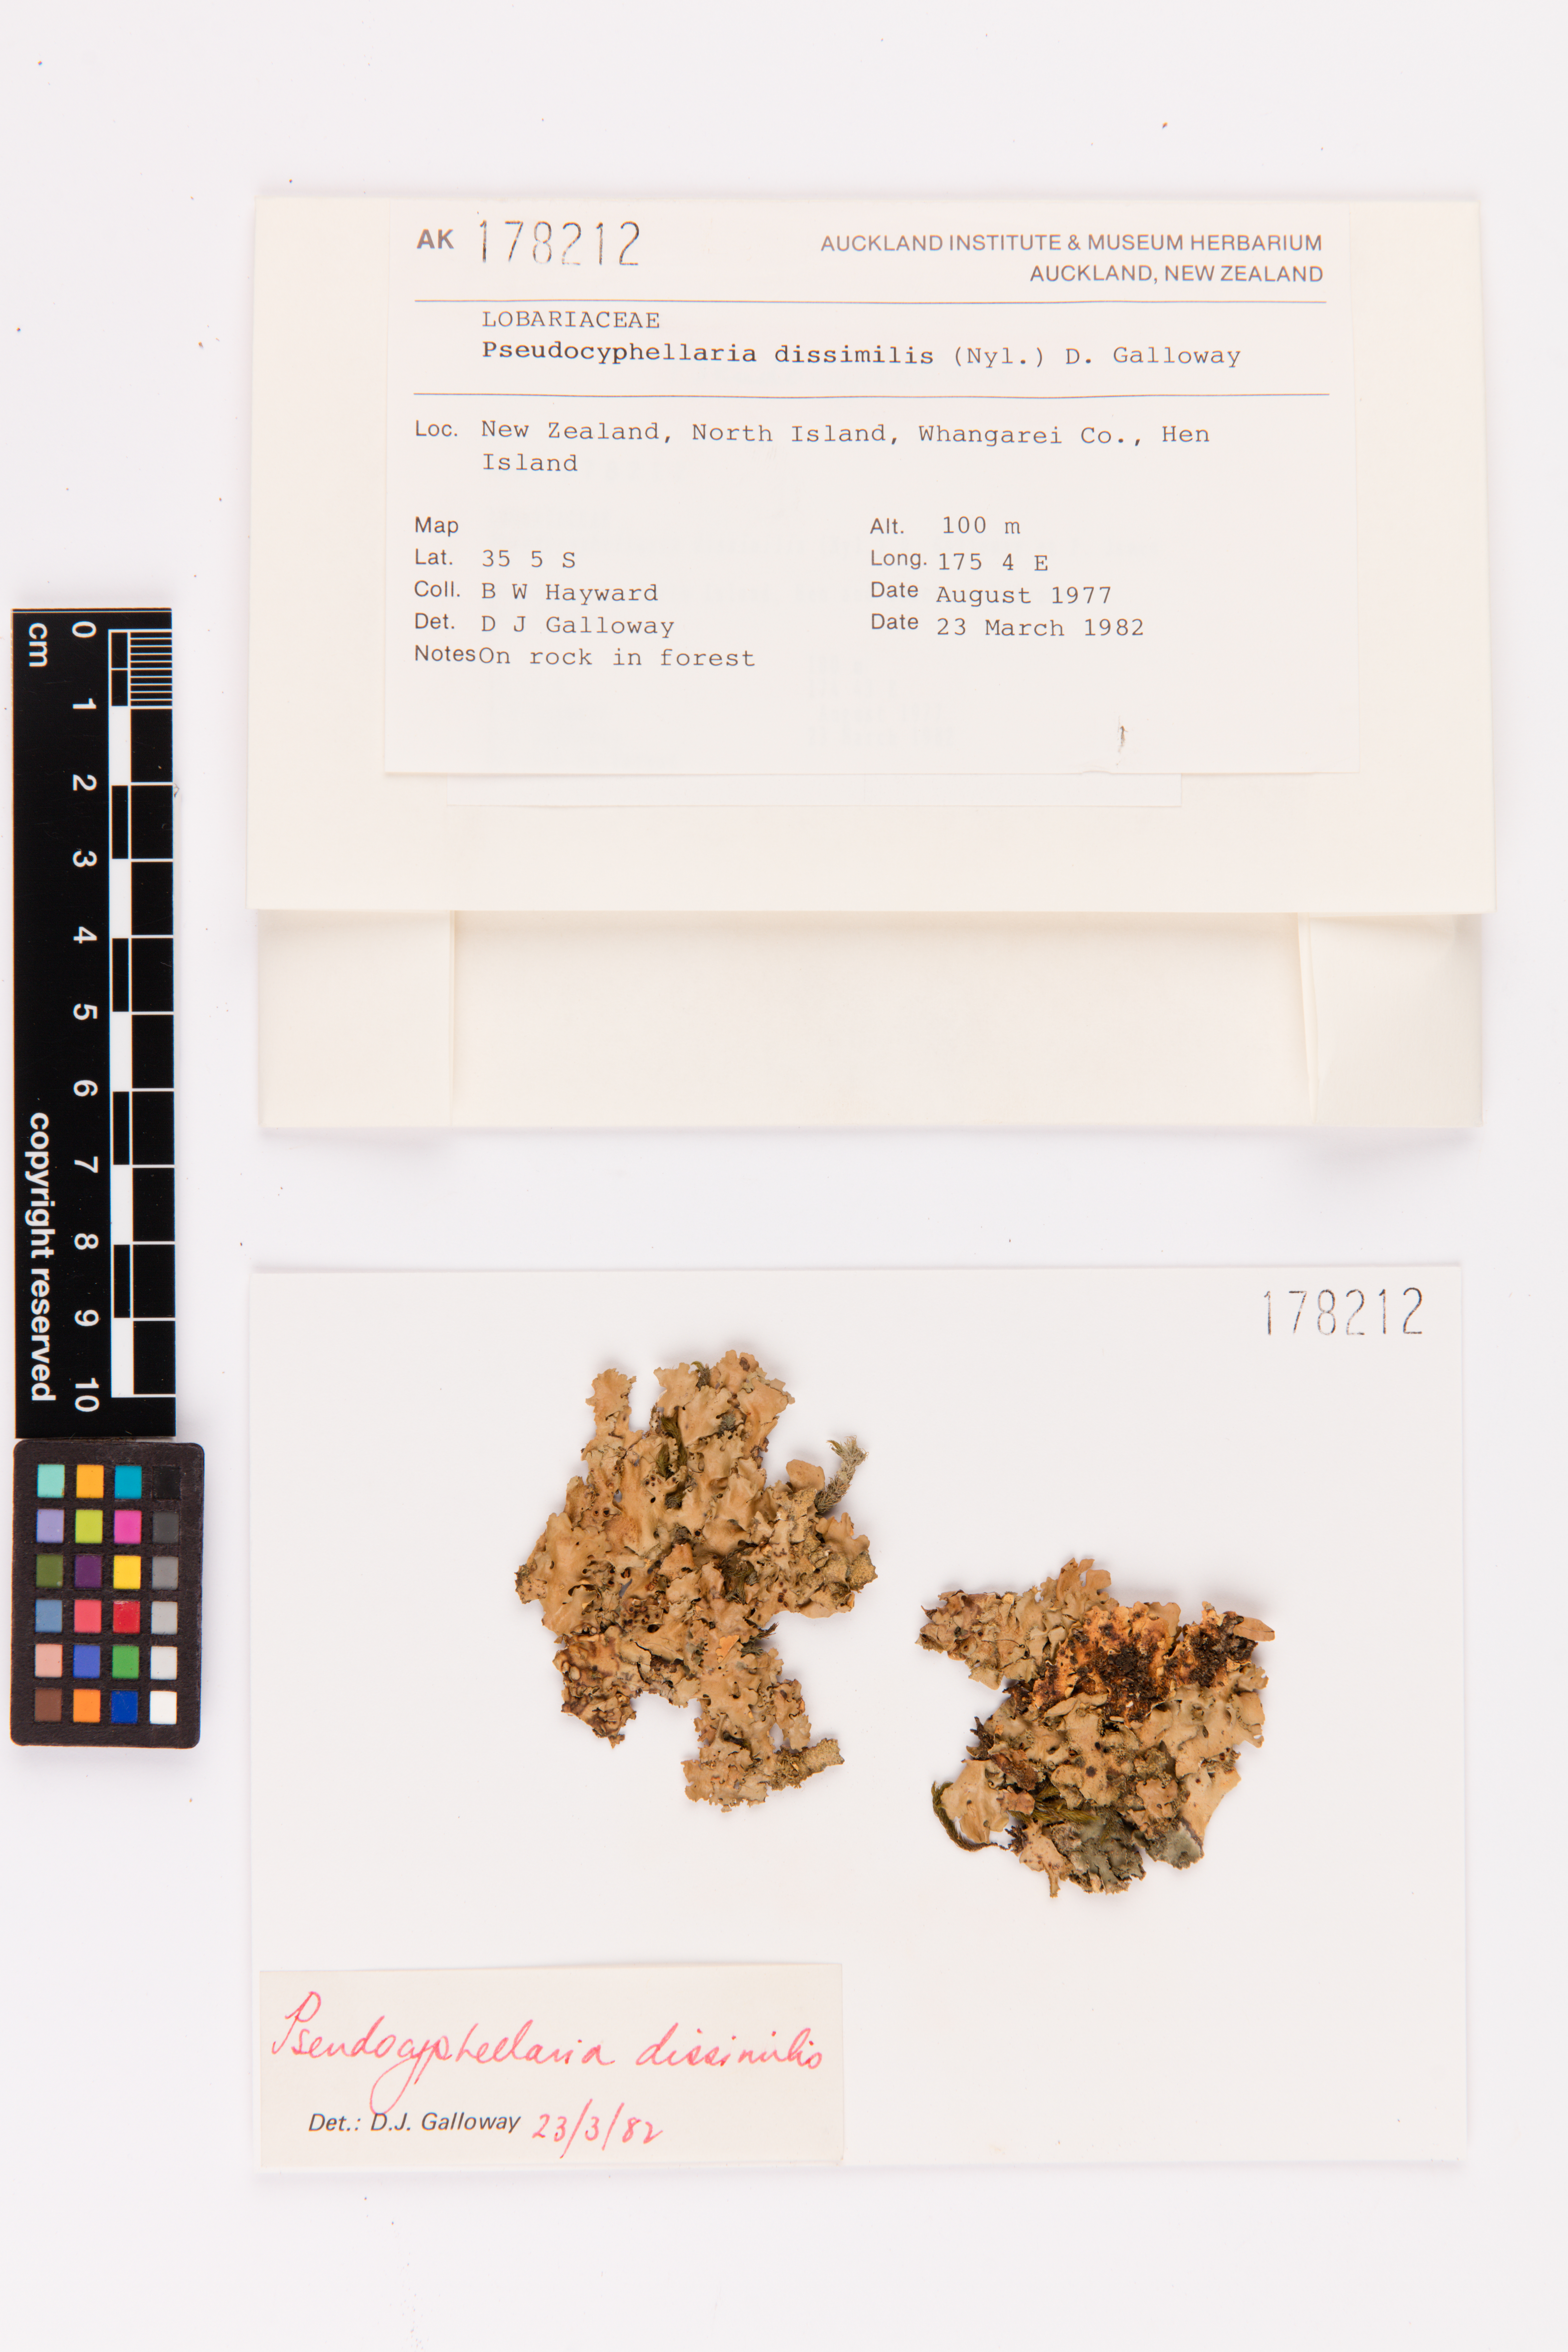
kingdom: Fungi
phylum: Ascomycota
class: Lecanoromycetes
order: Peltigerales
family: Lobariaceae
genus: Pseudocyphellaria
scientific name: Pseudocyphellaria dissimilis
